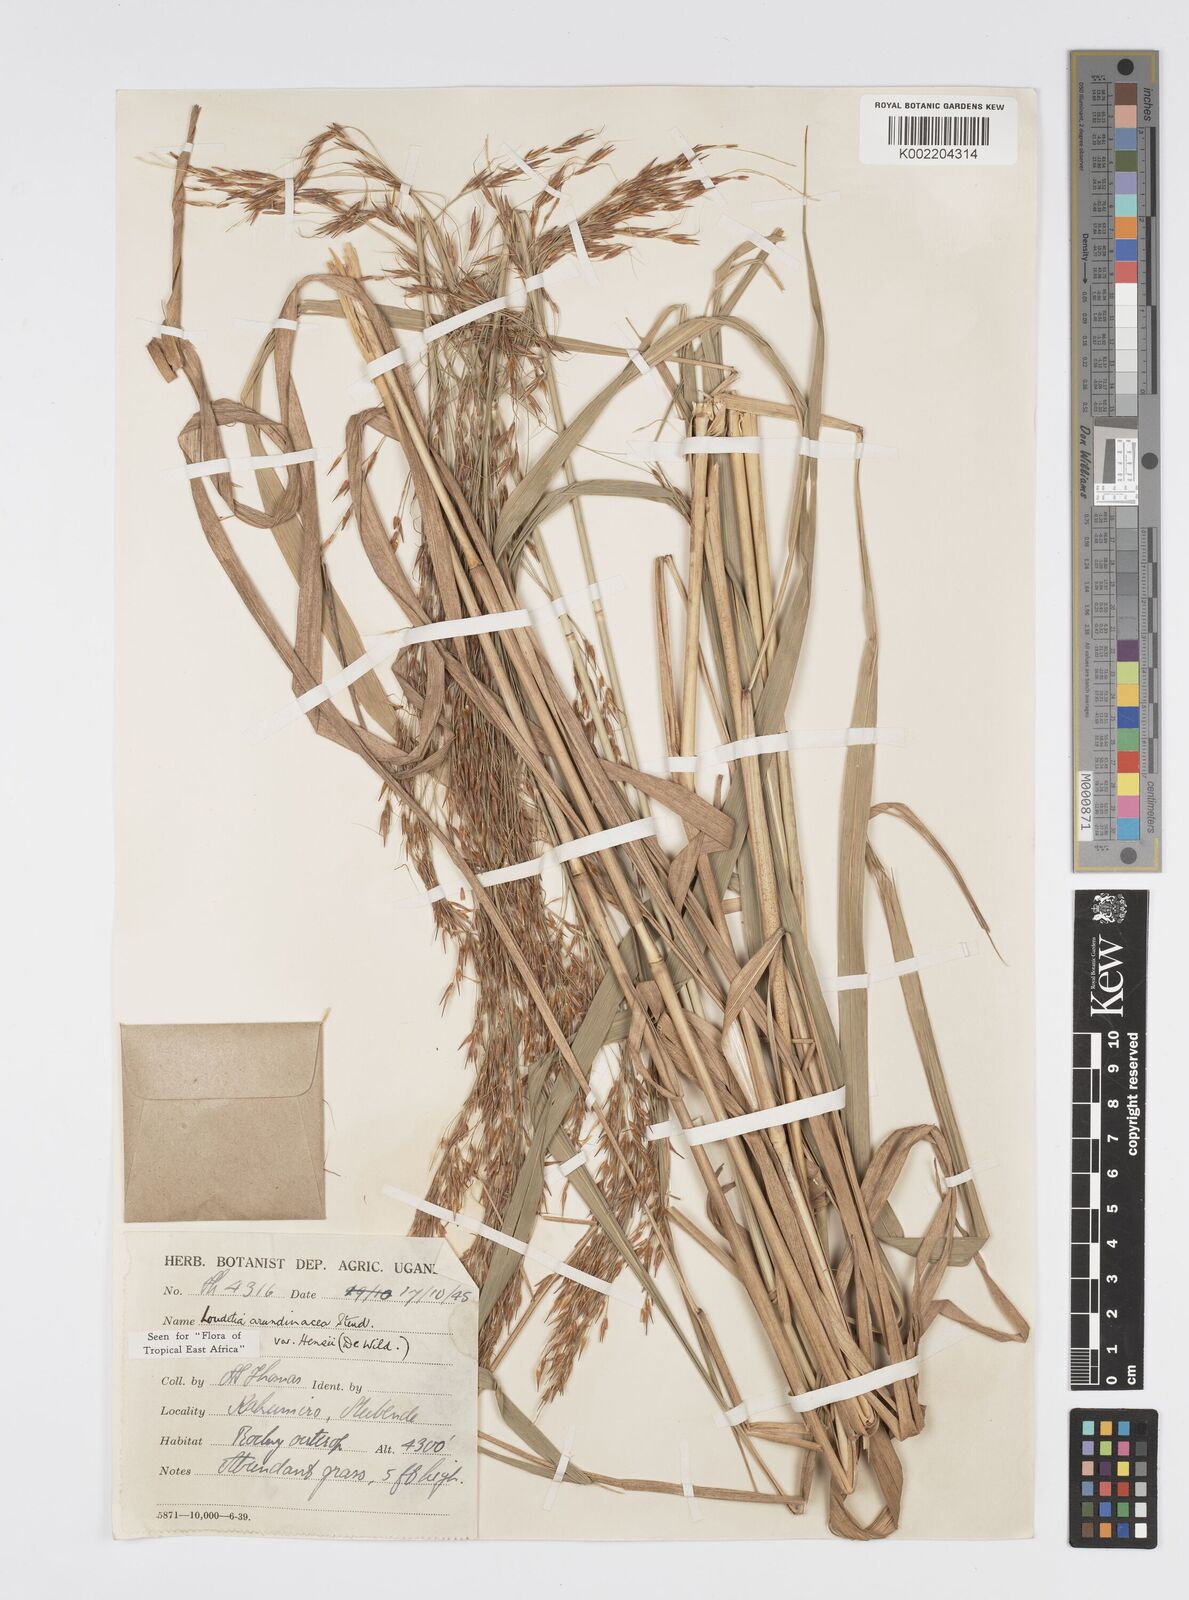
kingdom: Plantae
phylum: Tracheophyta
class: Liliopsida
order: Poales
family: Poaceae
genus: Loudetia
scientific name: Loudetia arundinacea
